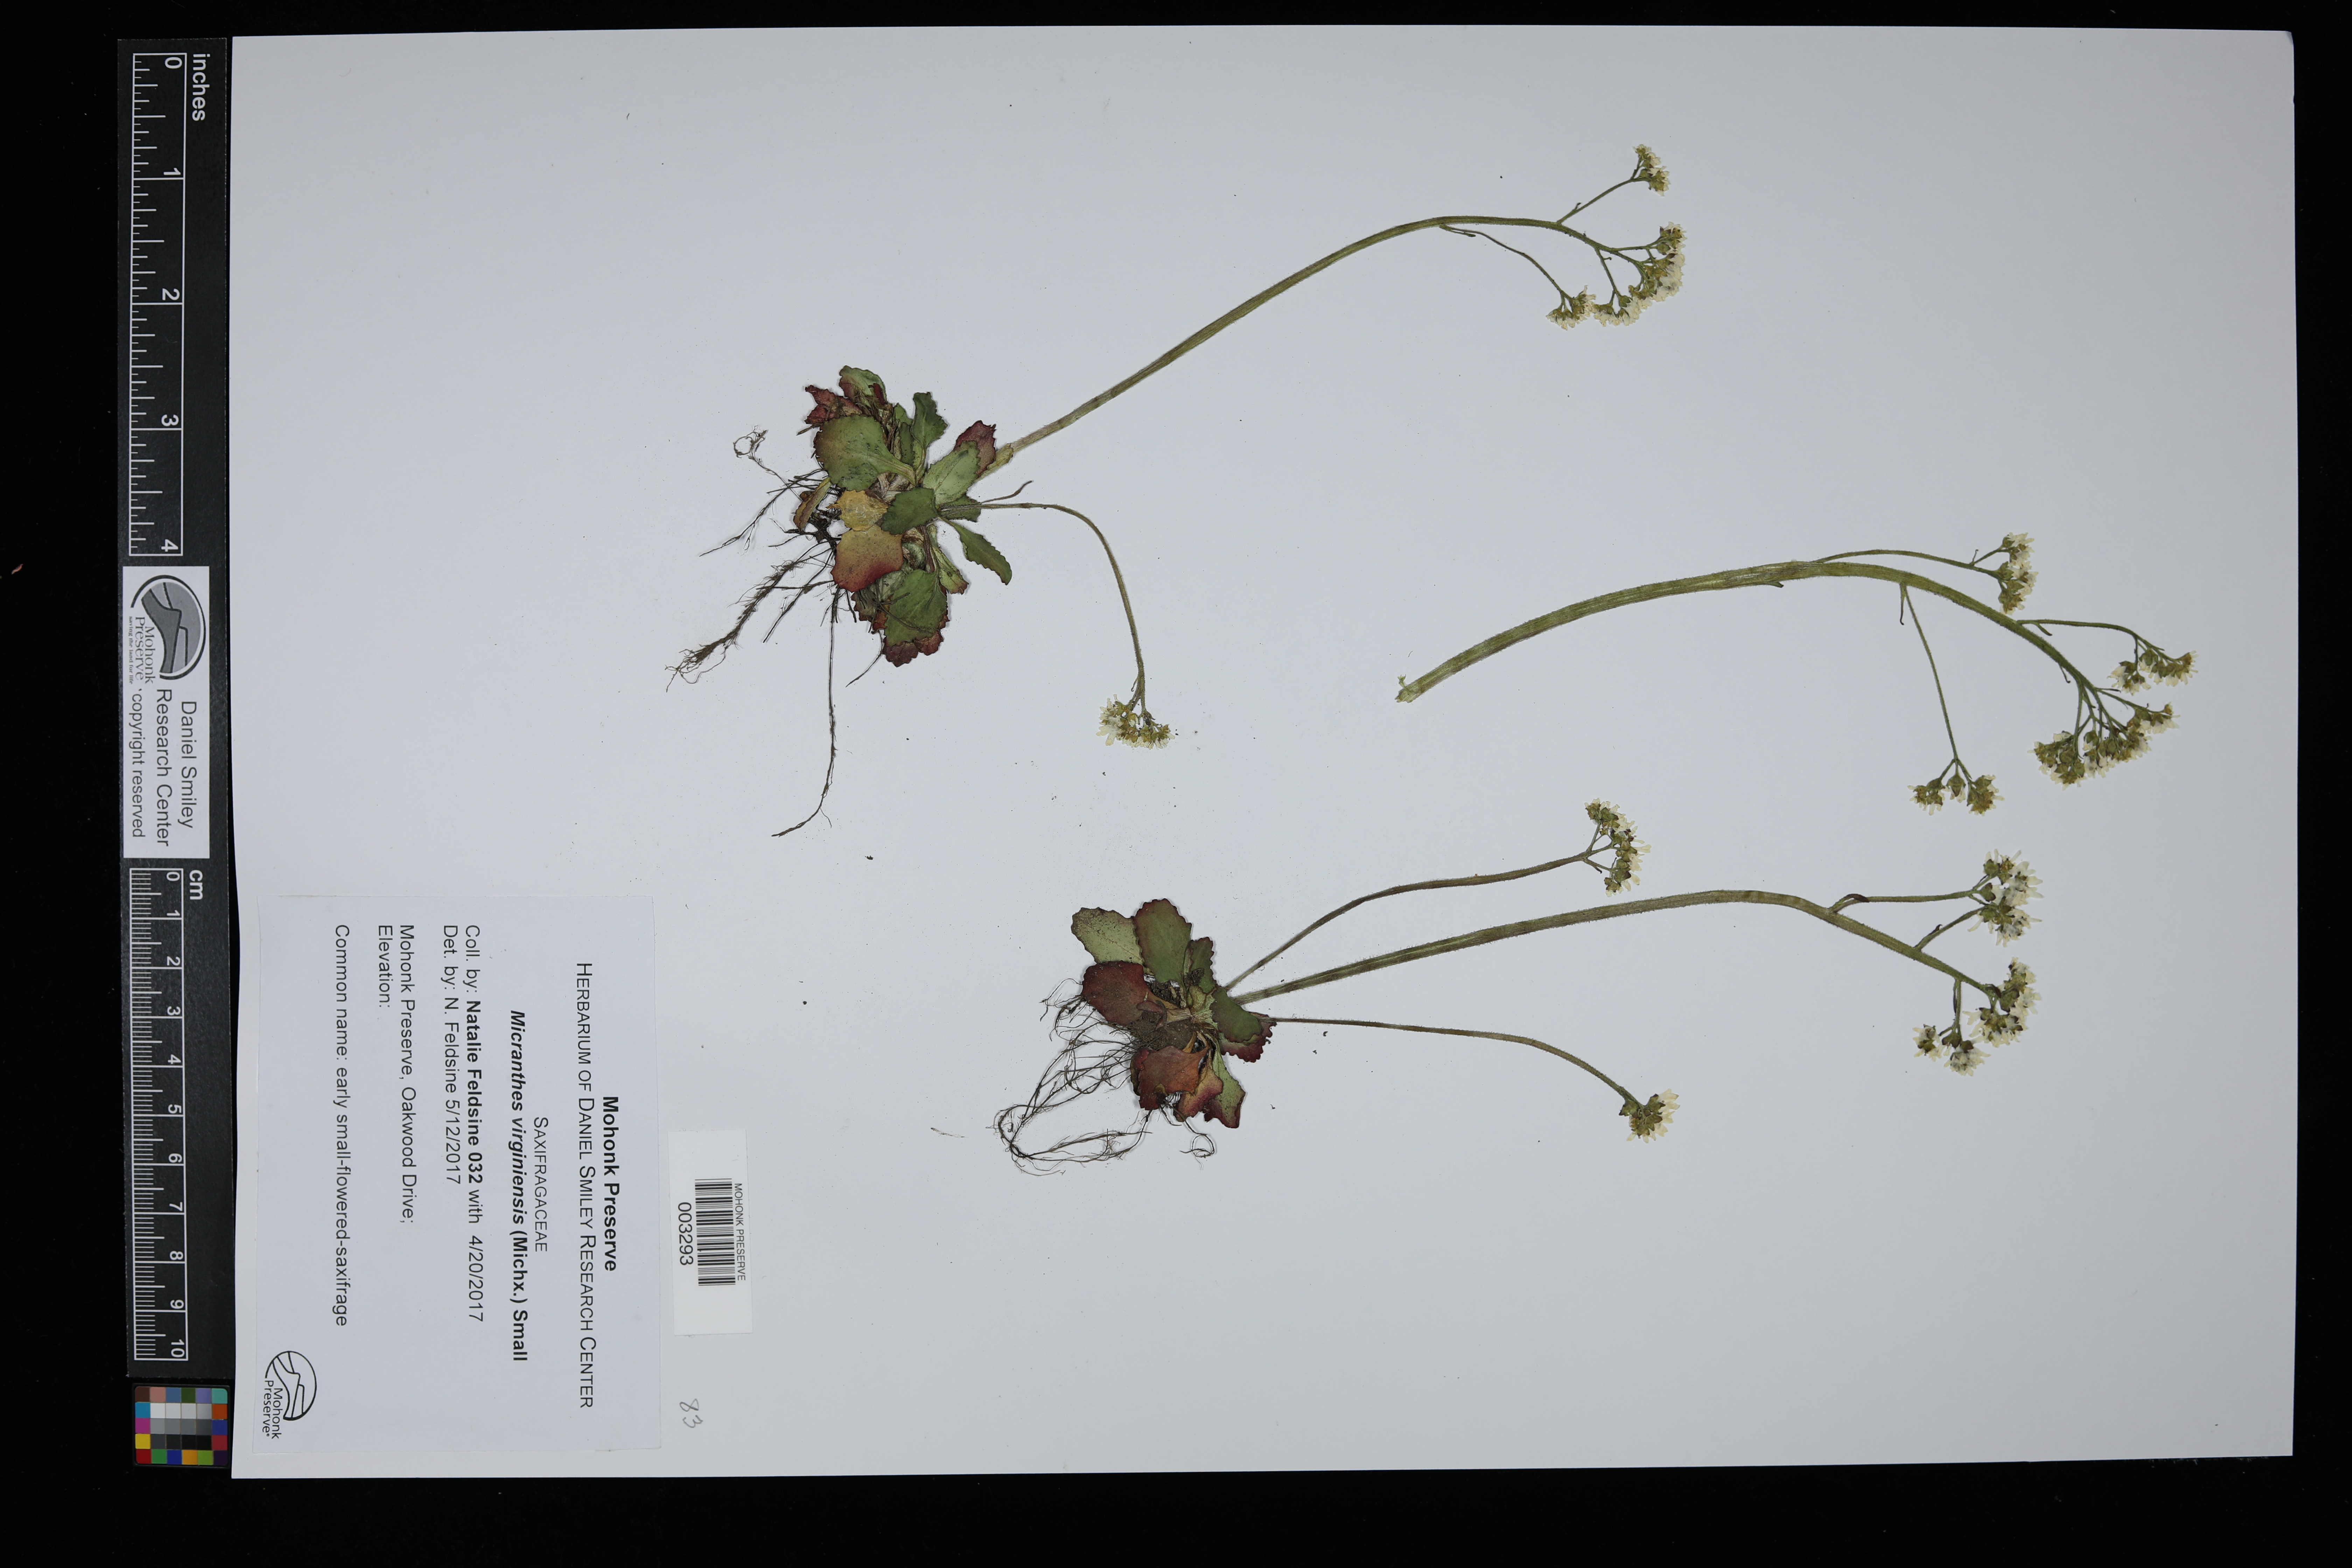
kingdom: Plantae
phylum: Tracheophyta
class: Magnoliopsida
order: Saxifragales
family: Saxifragaceae
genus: Micranthes
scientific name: Micranthes virginiensis
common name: Early saxifrage
